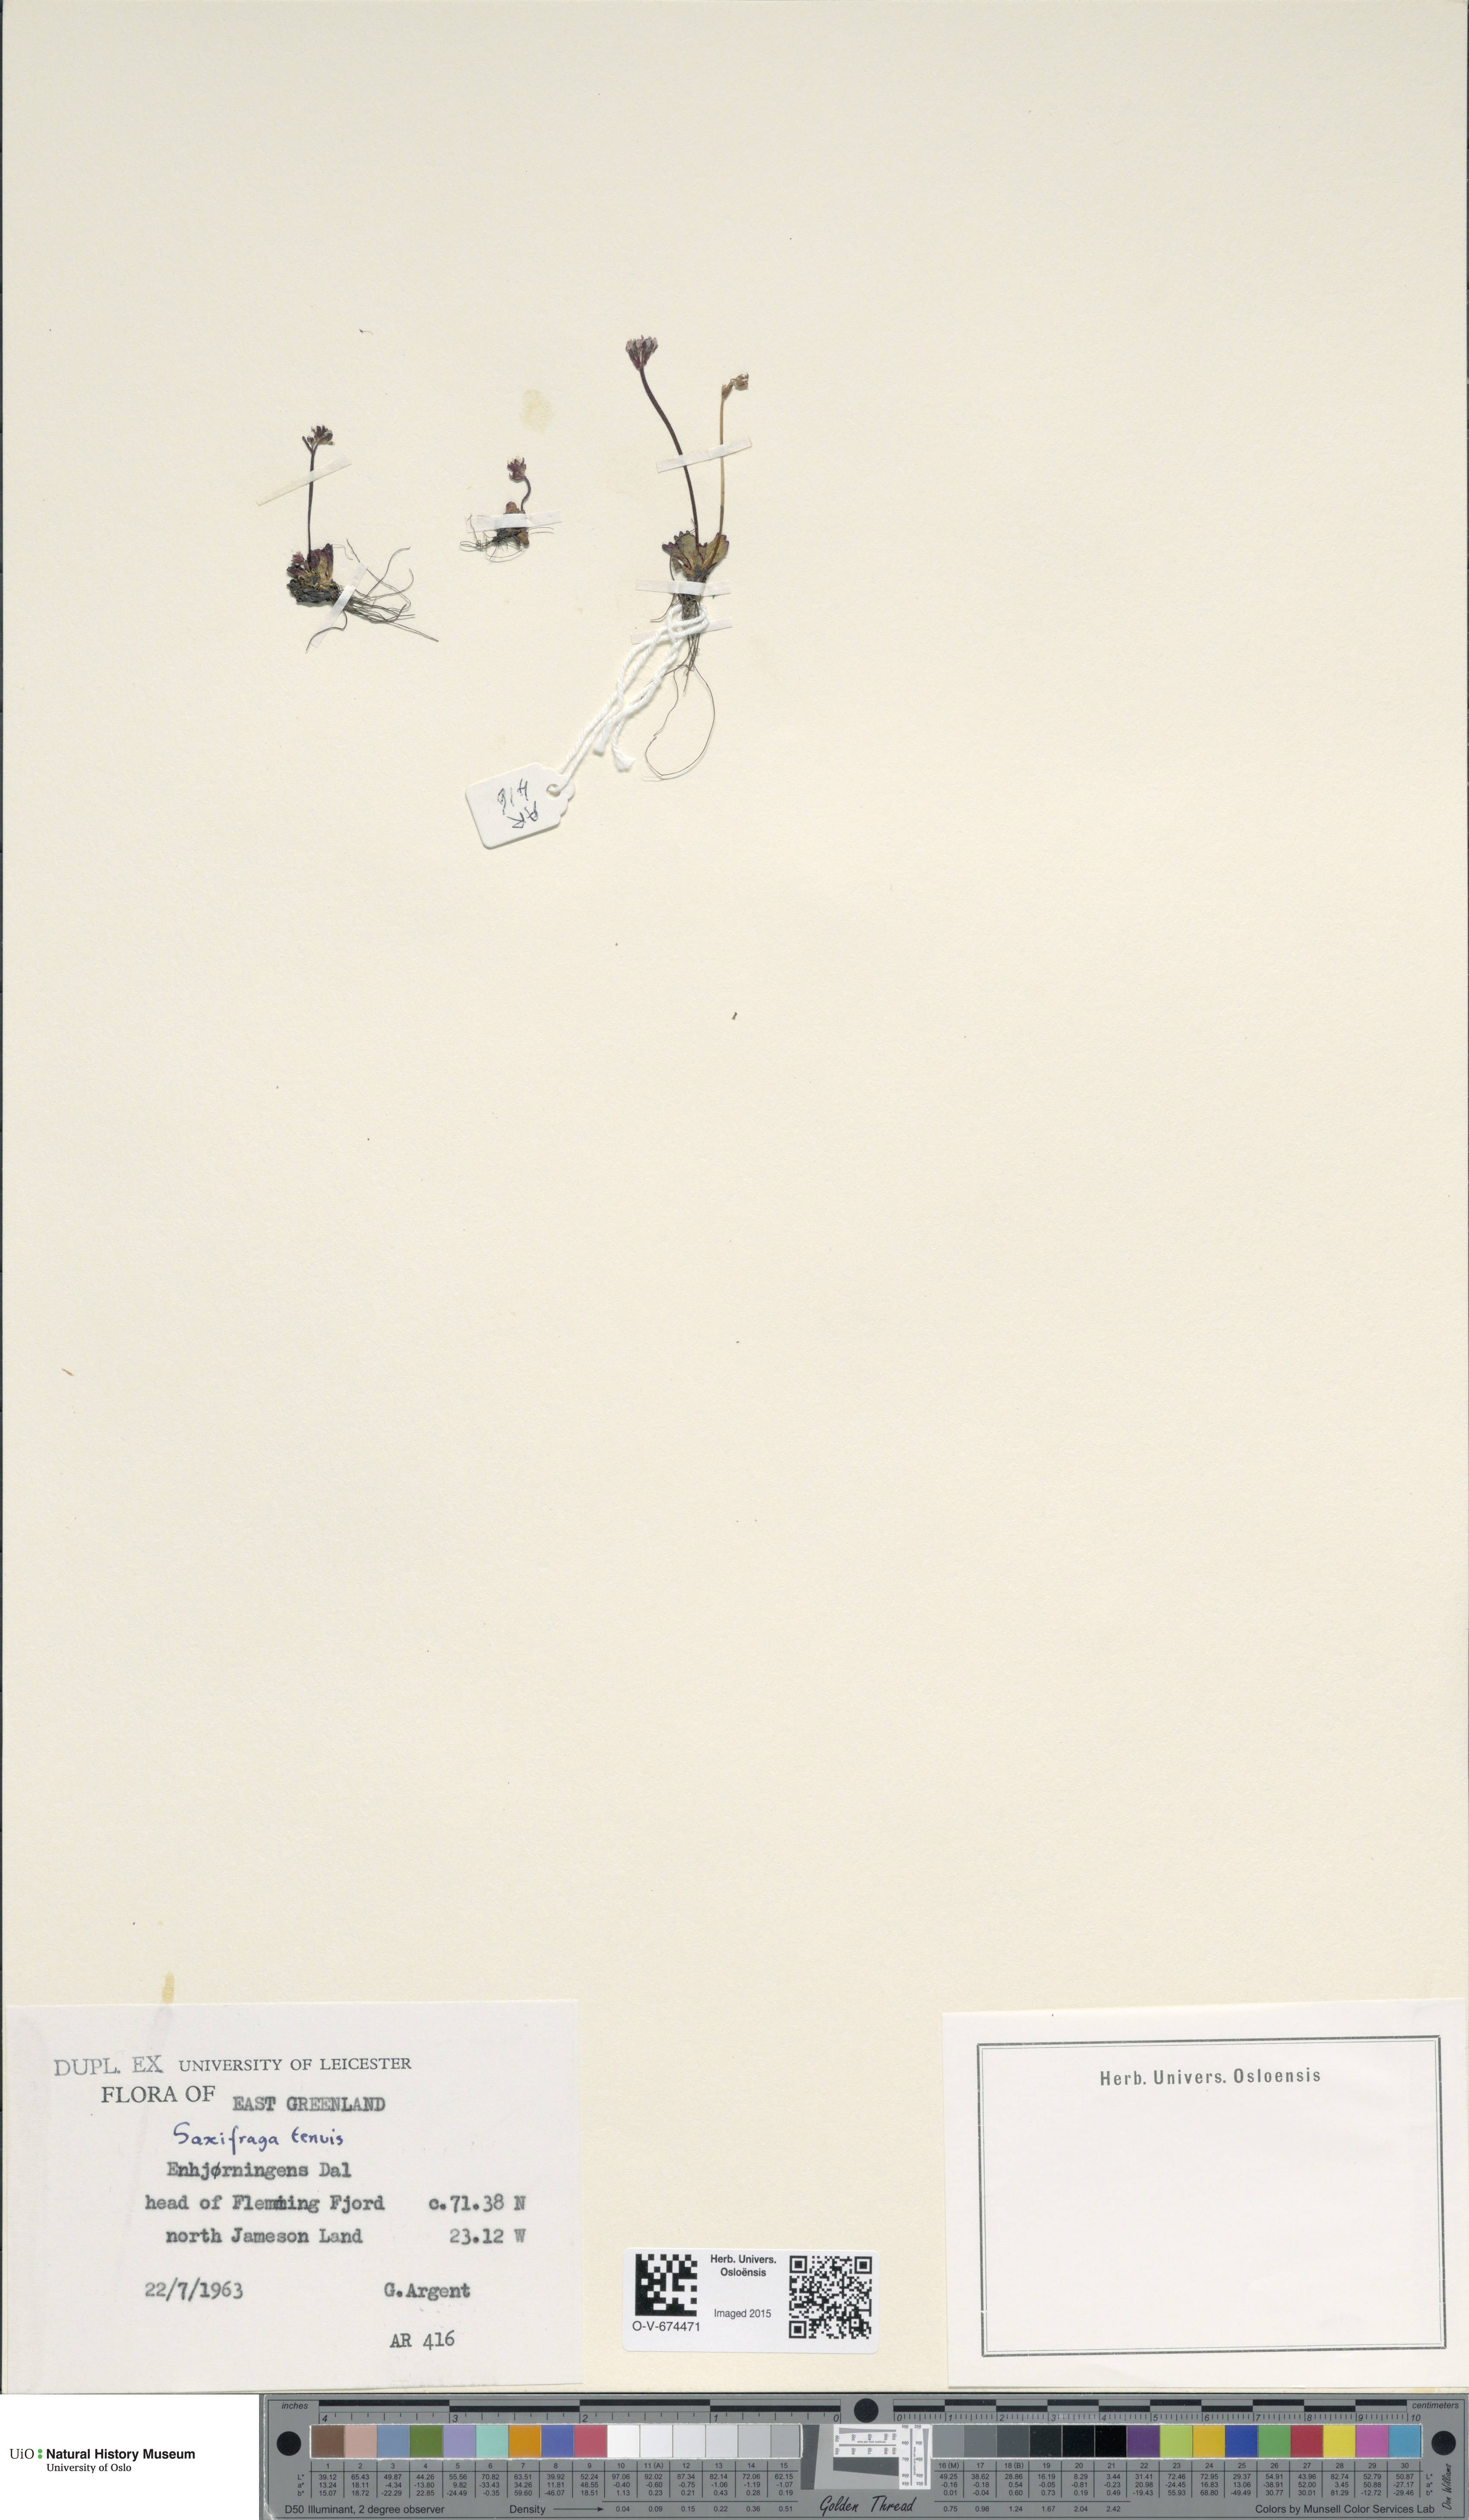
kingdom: Plantae
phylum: Tracheophyta
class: Magnoliopsida
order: Saxifragales
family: Saxifragaceae
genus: Micranthes
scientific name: Micranthes tenuis
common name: Ottertail pass saxifrage
